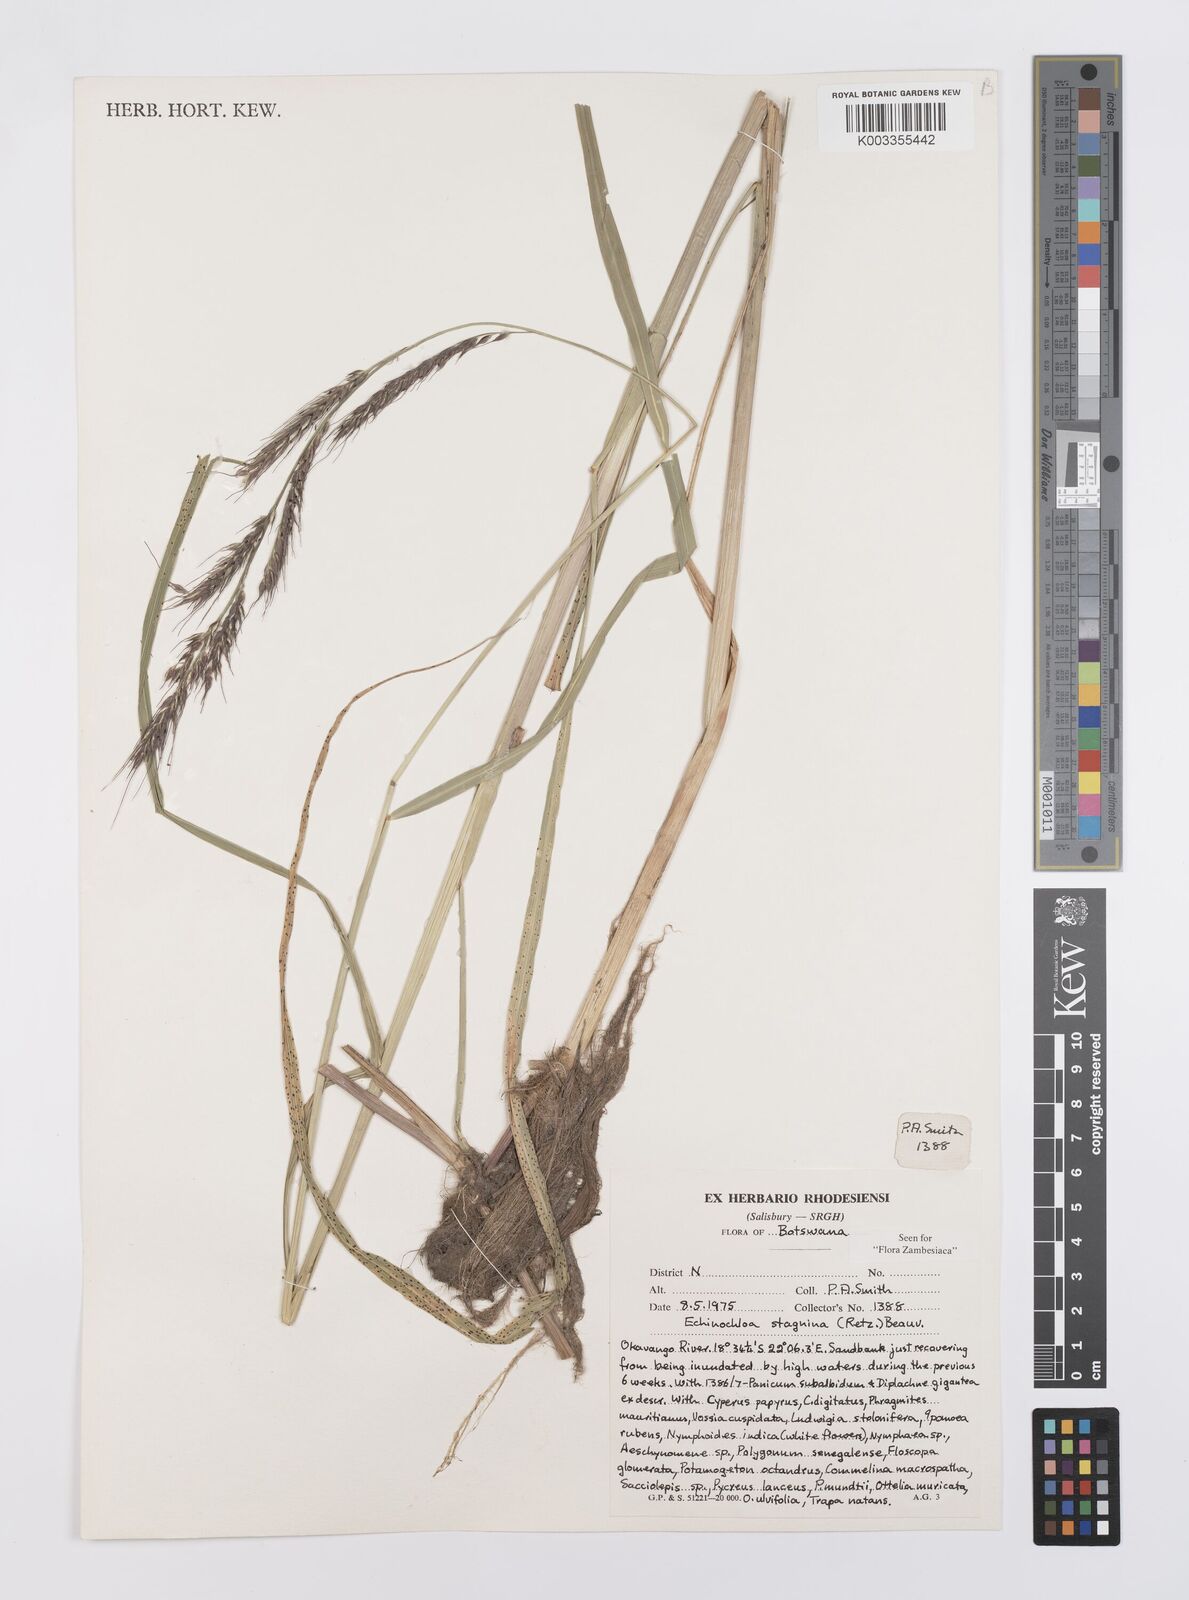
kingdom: Plantae
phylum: Tracheophyta
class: Liliopsida
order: Poales
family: Poaceae
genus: Echinochloa
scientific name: Echinochloa stagnina
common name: Burgu grass
